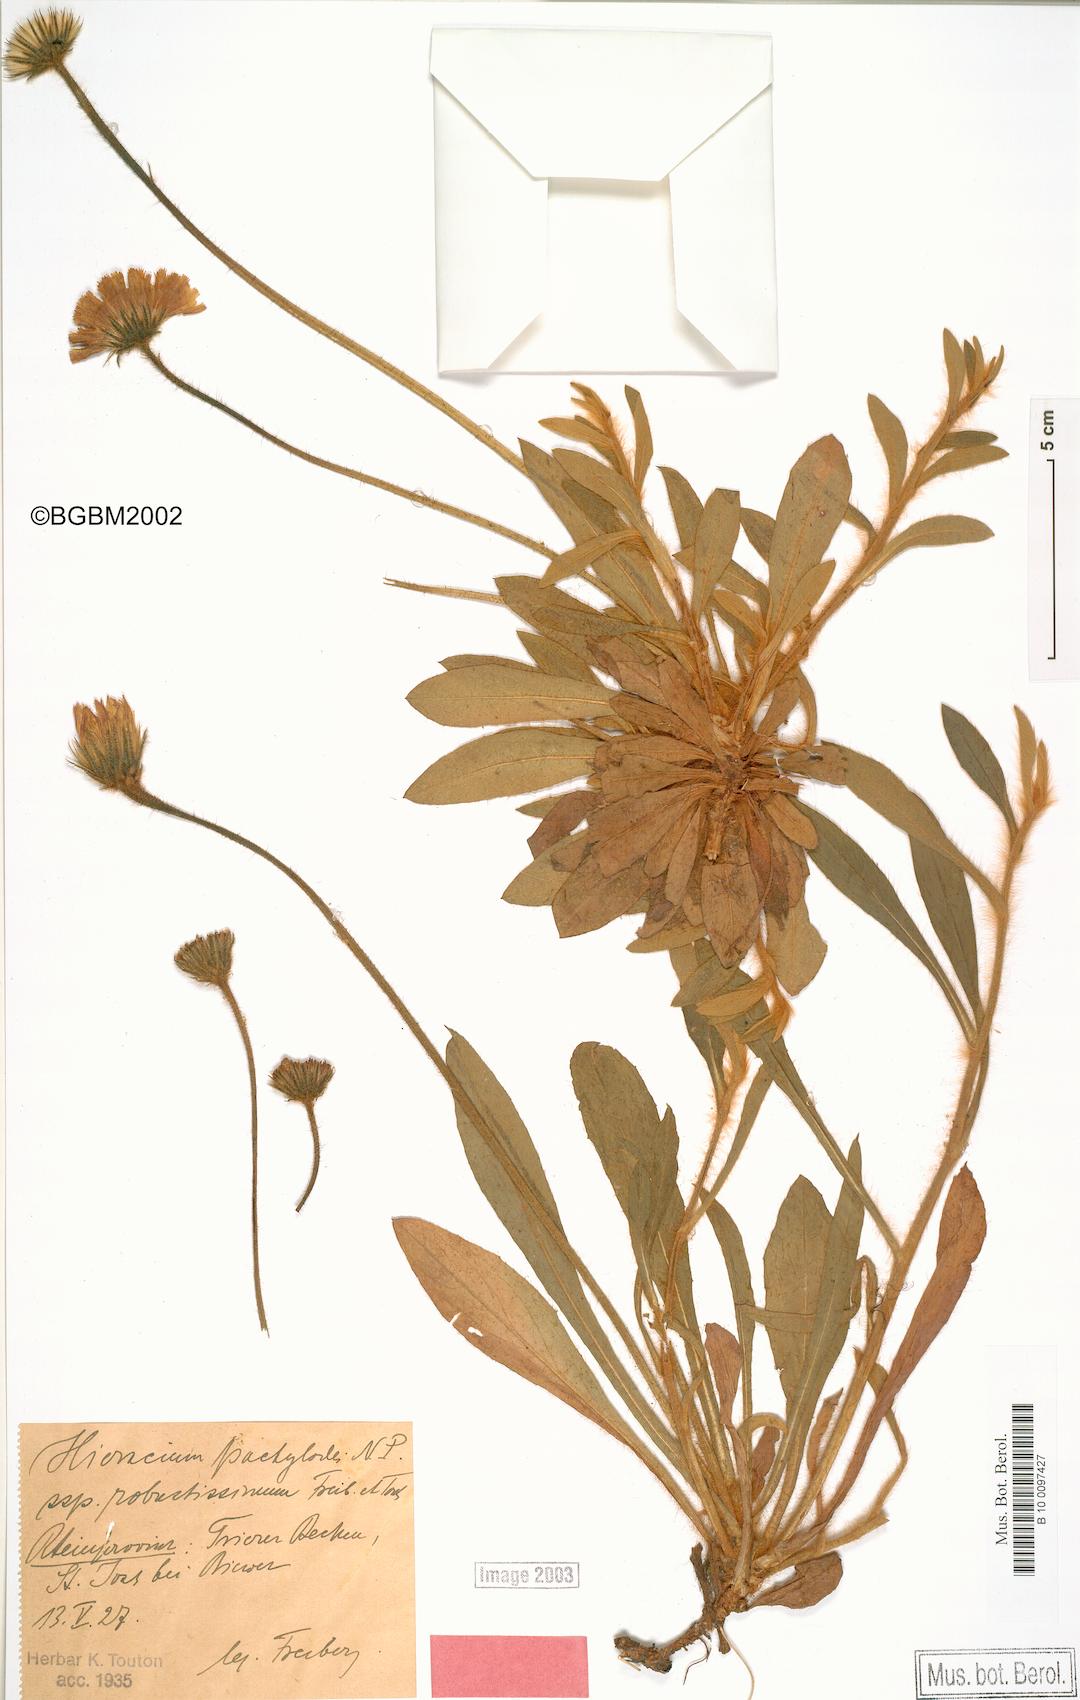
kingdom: Plantae
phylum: Tracheophyta
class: Magnoliopsida
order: Asterales
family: Asteraceae
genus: Pilosella
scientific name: Pilosella longisquama
